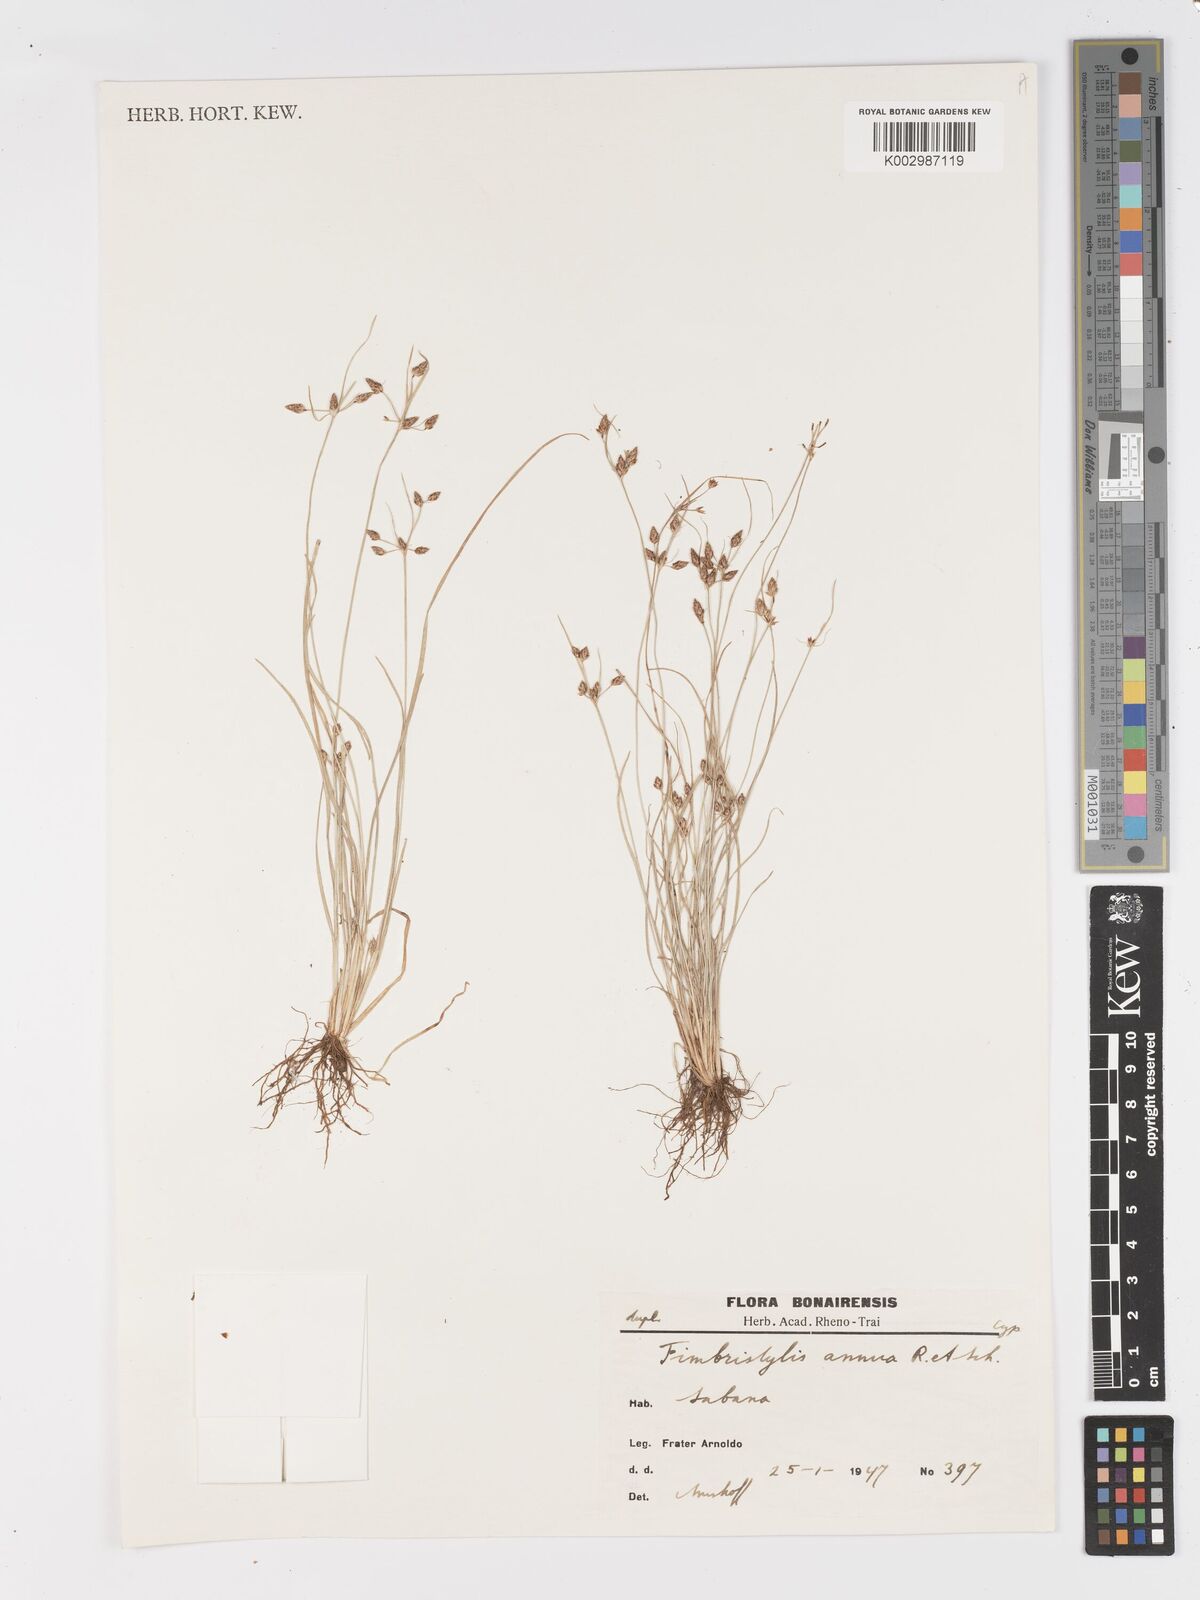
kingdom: Plantae
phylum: Tracheophyta
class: Liliopsida
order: Poales
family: Cyperaceae
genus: Fimbristylis
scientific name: Fimbristylis dichotoma
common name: Forked fimbry
